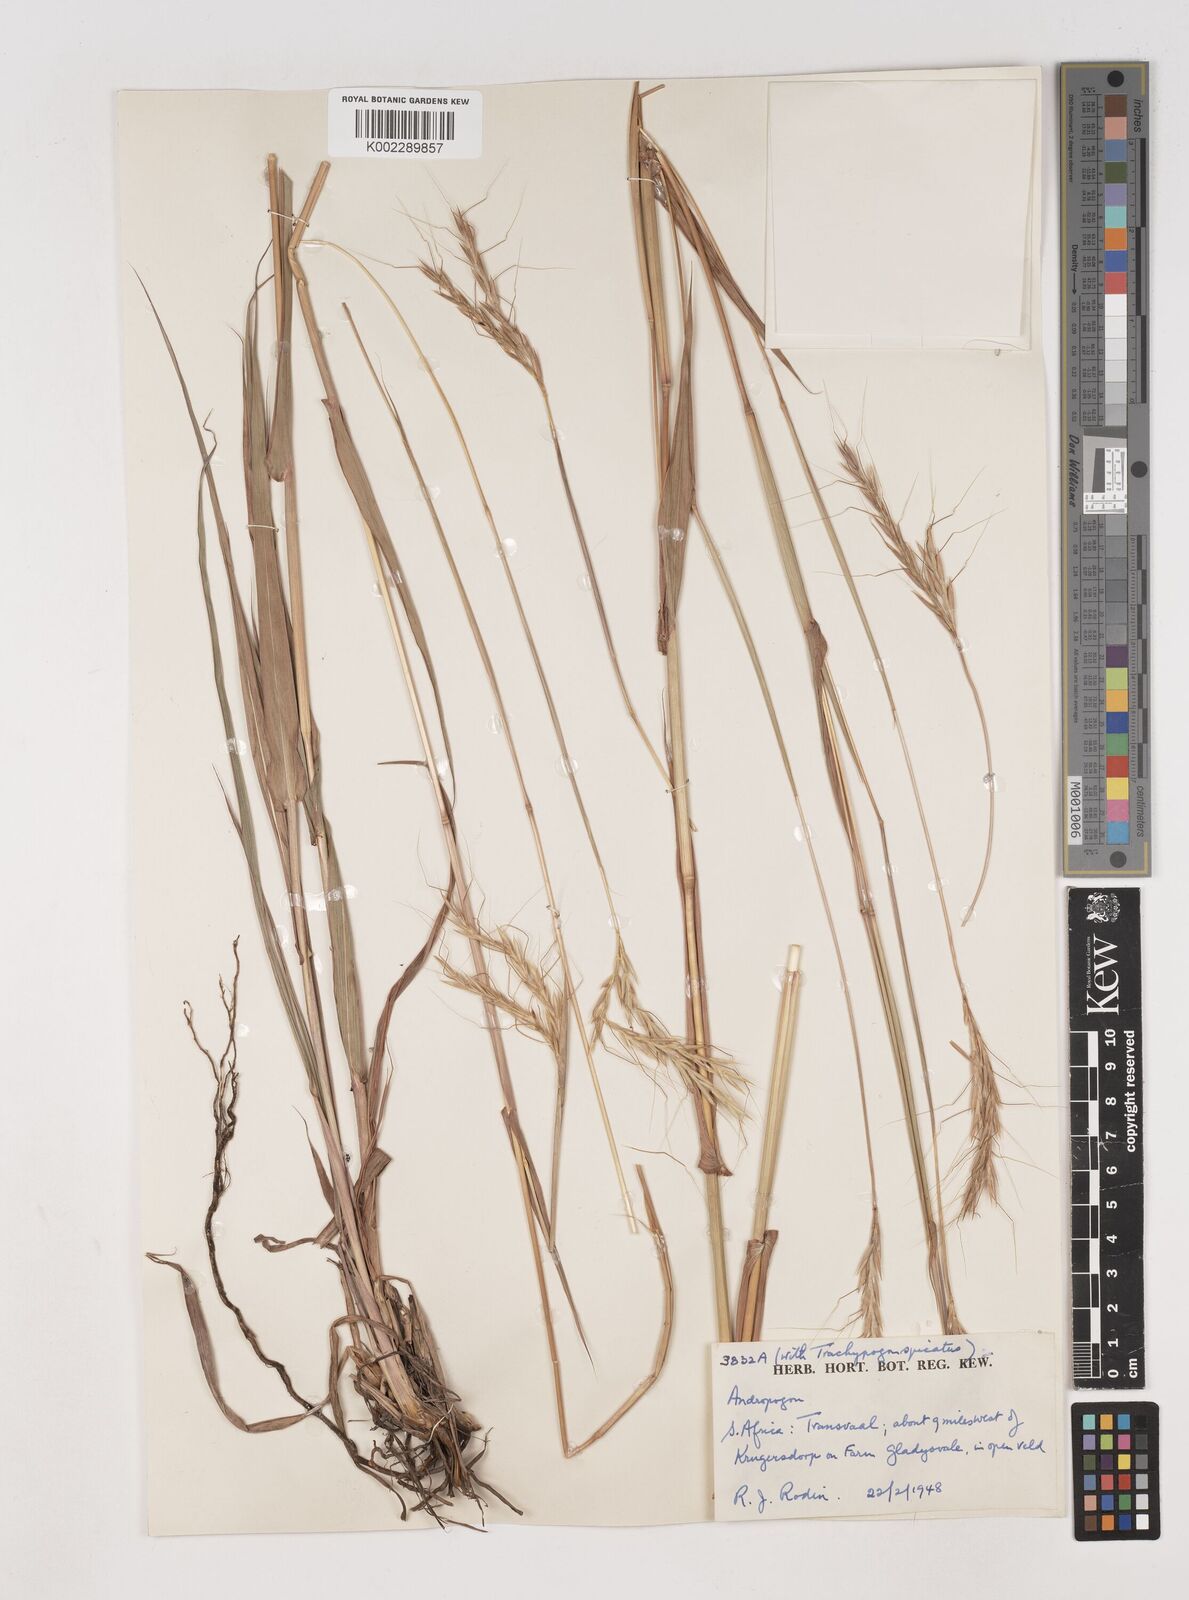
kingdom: Plantae
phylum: Tracheophyta
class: Liliopsida
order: Poales
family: Poaceae
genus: Diheteropogon
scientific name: Diheteropogon amplectens
